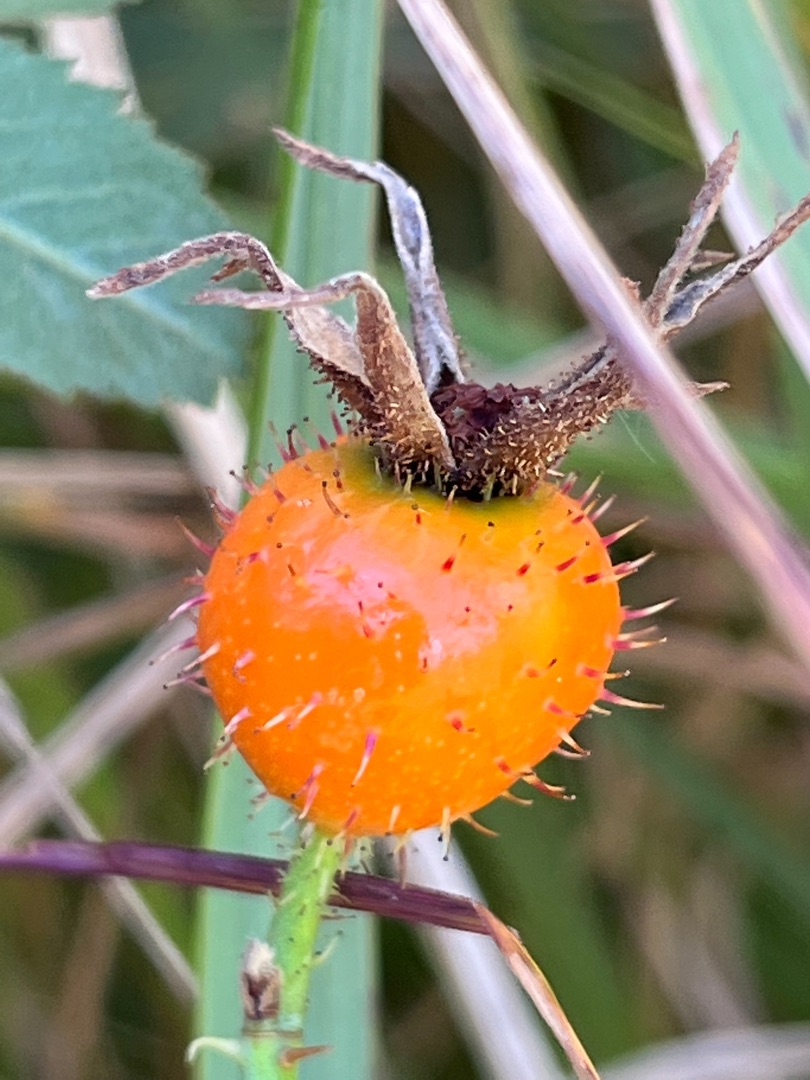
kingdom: Plantae
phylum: Tracheophyta
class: Magnoliopsida
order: Rosales
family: Rosaceae
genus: Rosa
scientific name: Rosa mollis
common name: Blød filt-rose
